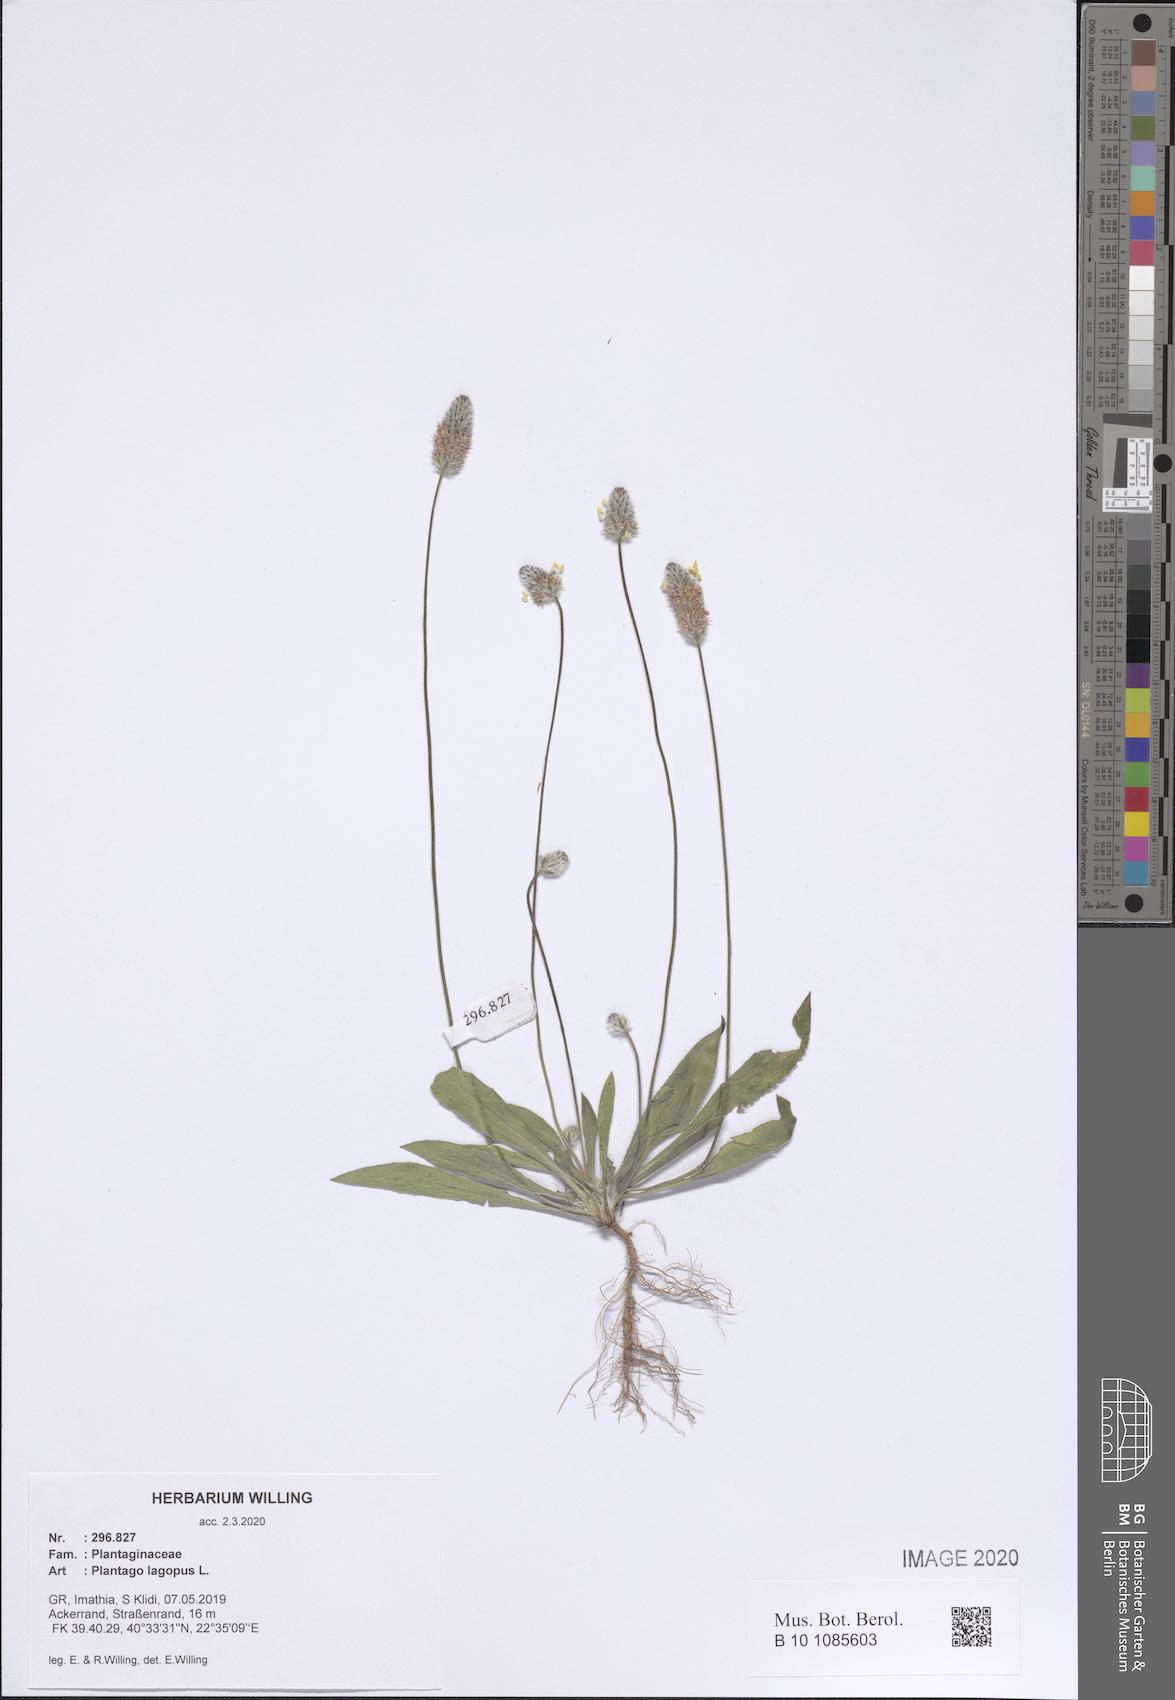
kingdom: Plantae
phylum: Tracheophyta
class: Magnoliopsida
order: Lamiales
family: Plantaginaceae
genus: Plantago
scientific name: Plantago lagopus
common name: Hare-foot plantain
